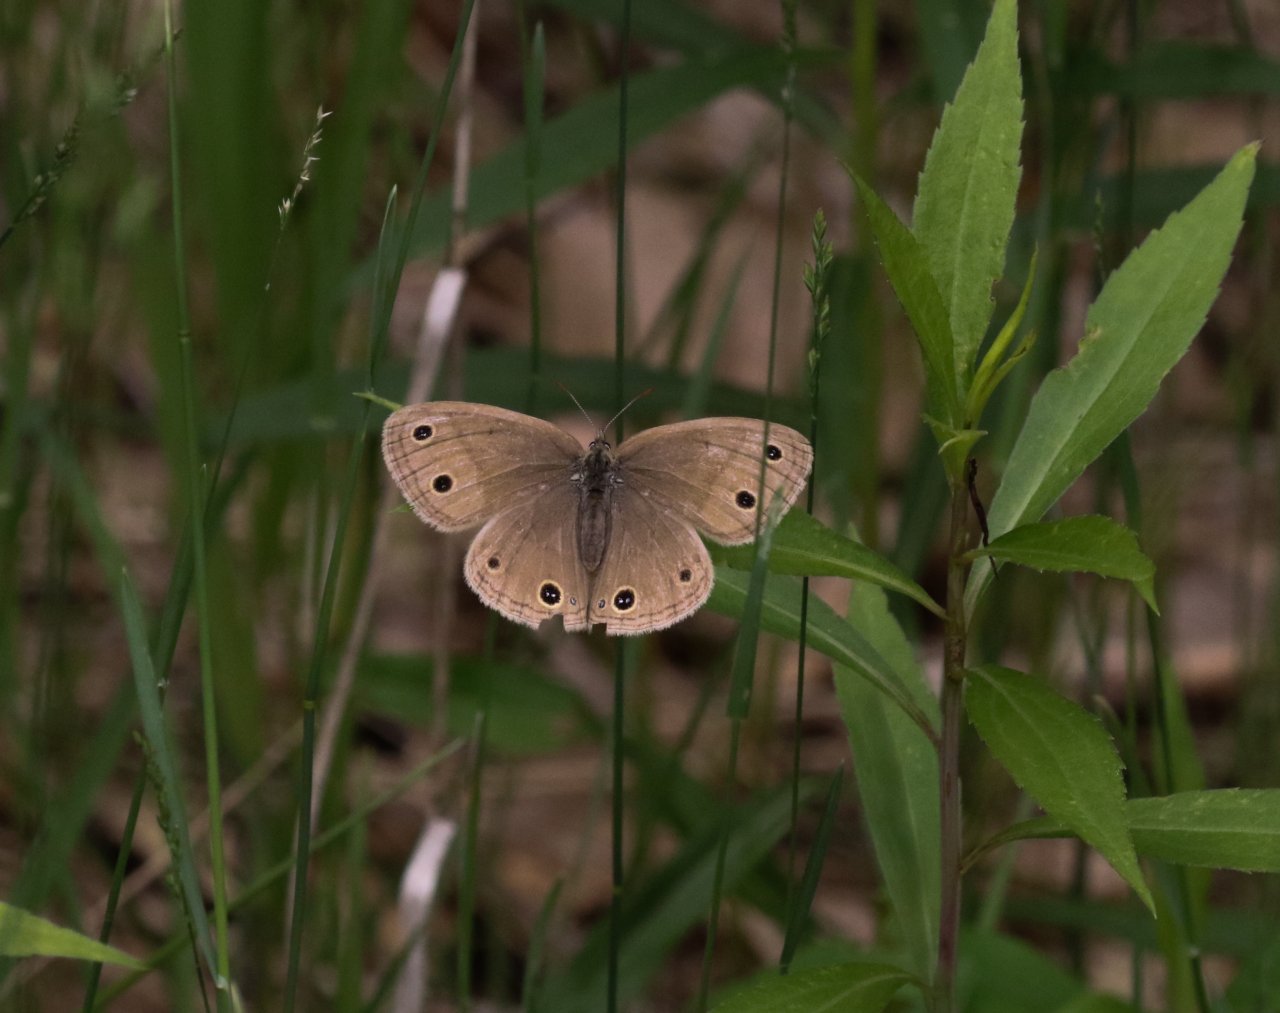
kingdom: Animalia
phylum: Arthropoda
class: Insecta
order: Lepidoptera
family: Nymphalidae
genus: Euptychia
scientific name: Euptychia cymela
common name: Little Wood Satyr
